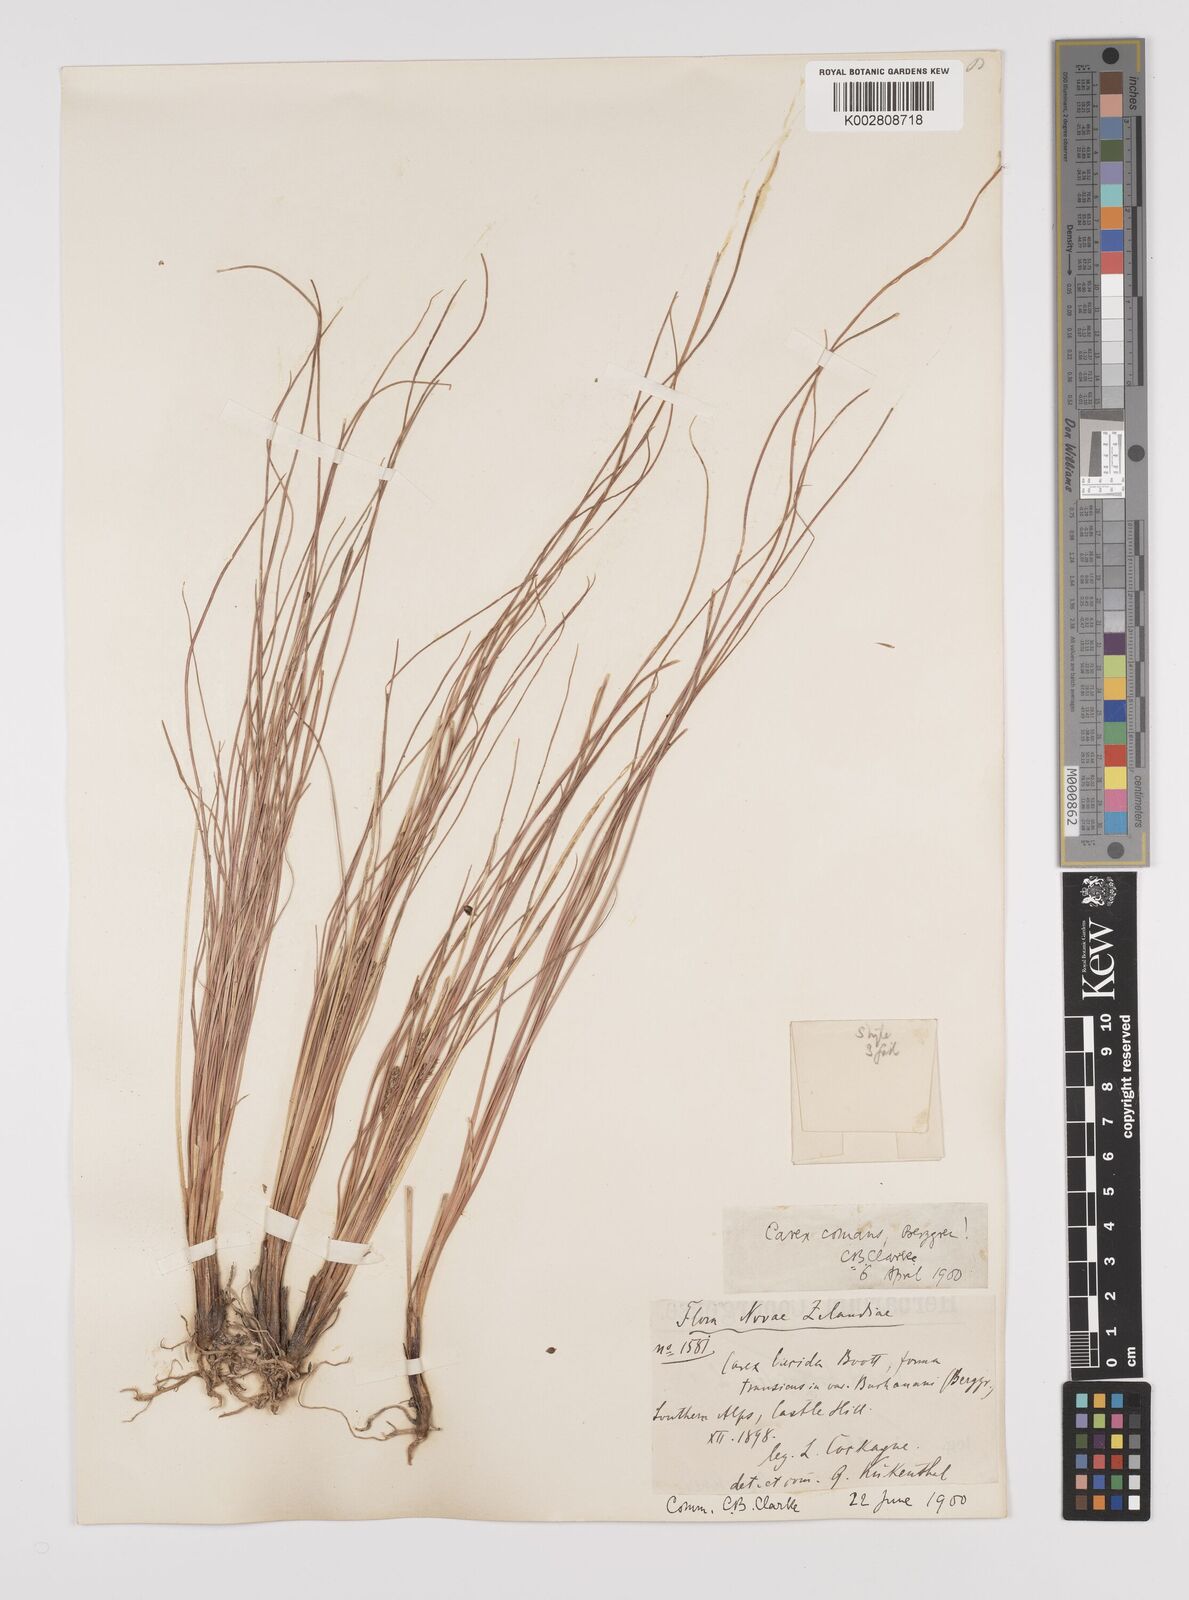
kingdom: Plantae
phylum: Tracheophyta
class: Liliopsida
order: Poales
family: Cyperaceae
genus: Carex
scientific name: Carex comans
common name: Longwood tussock
